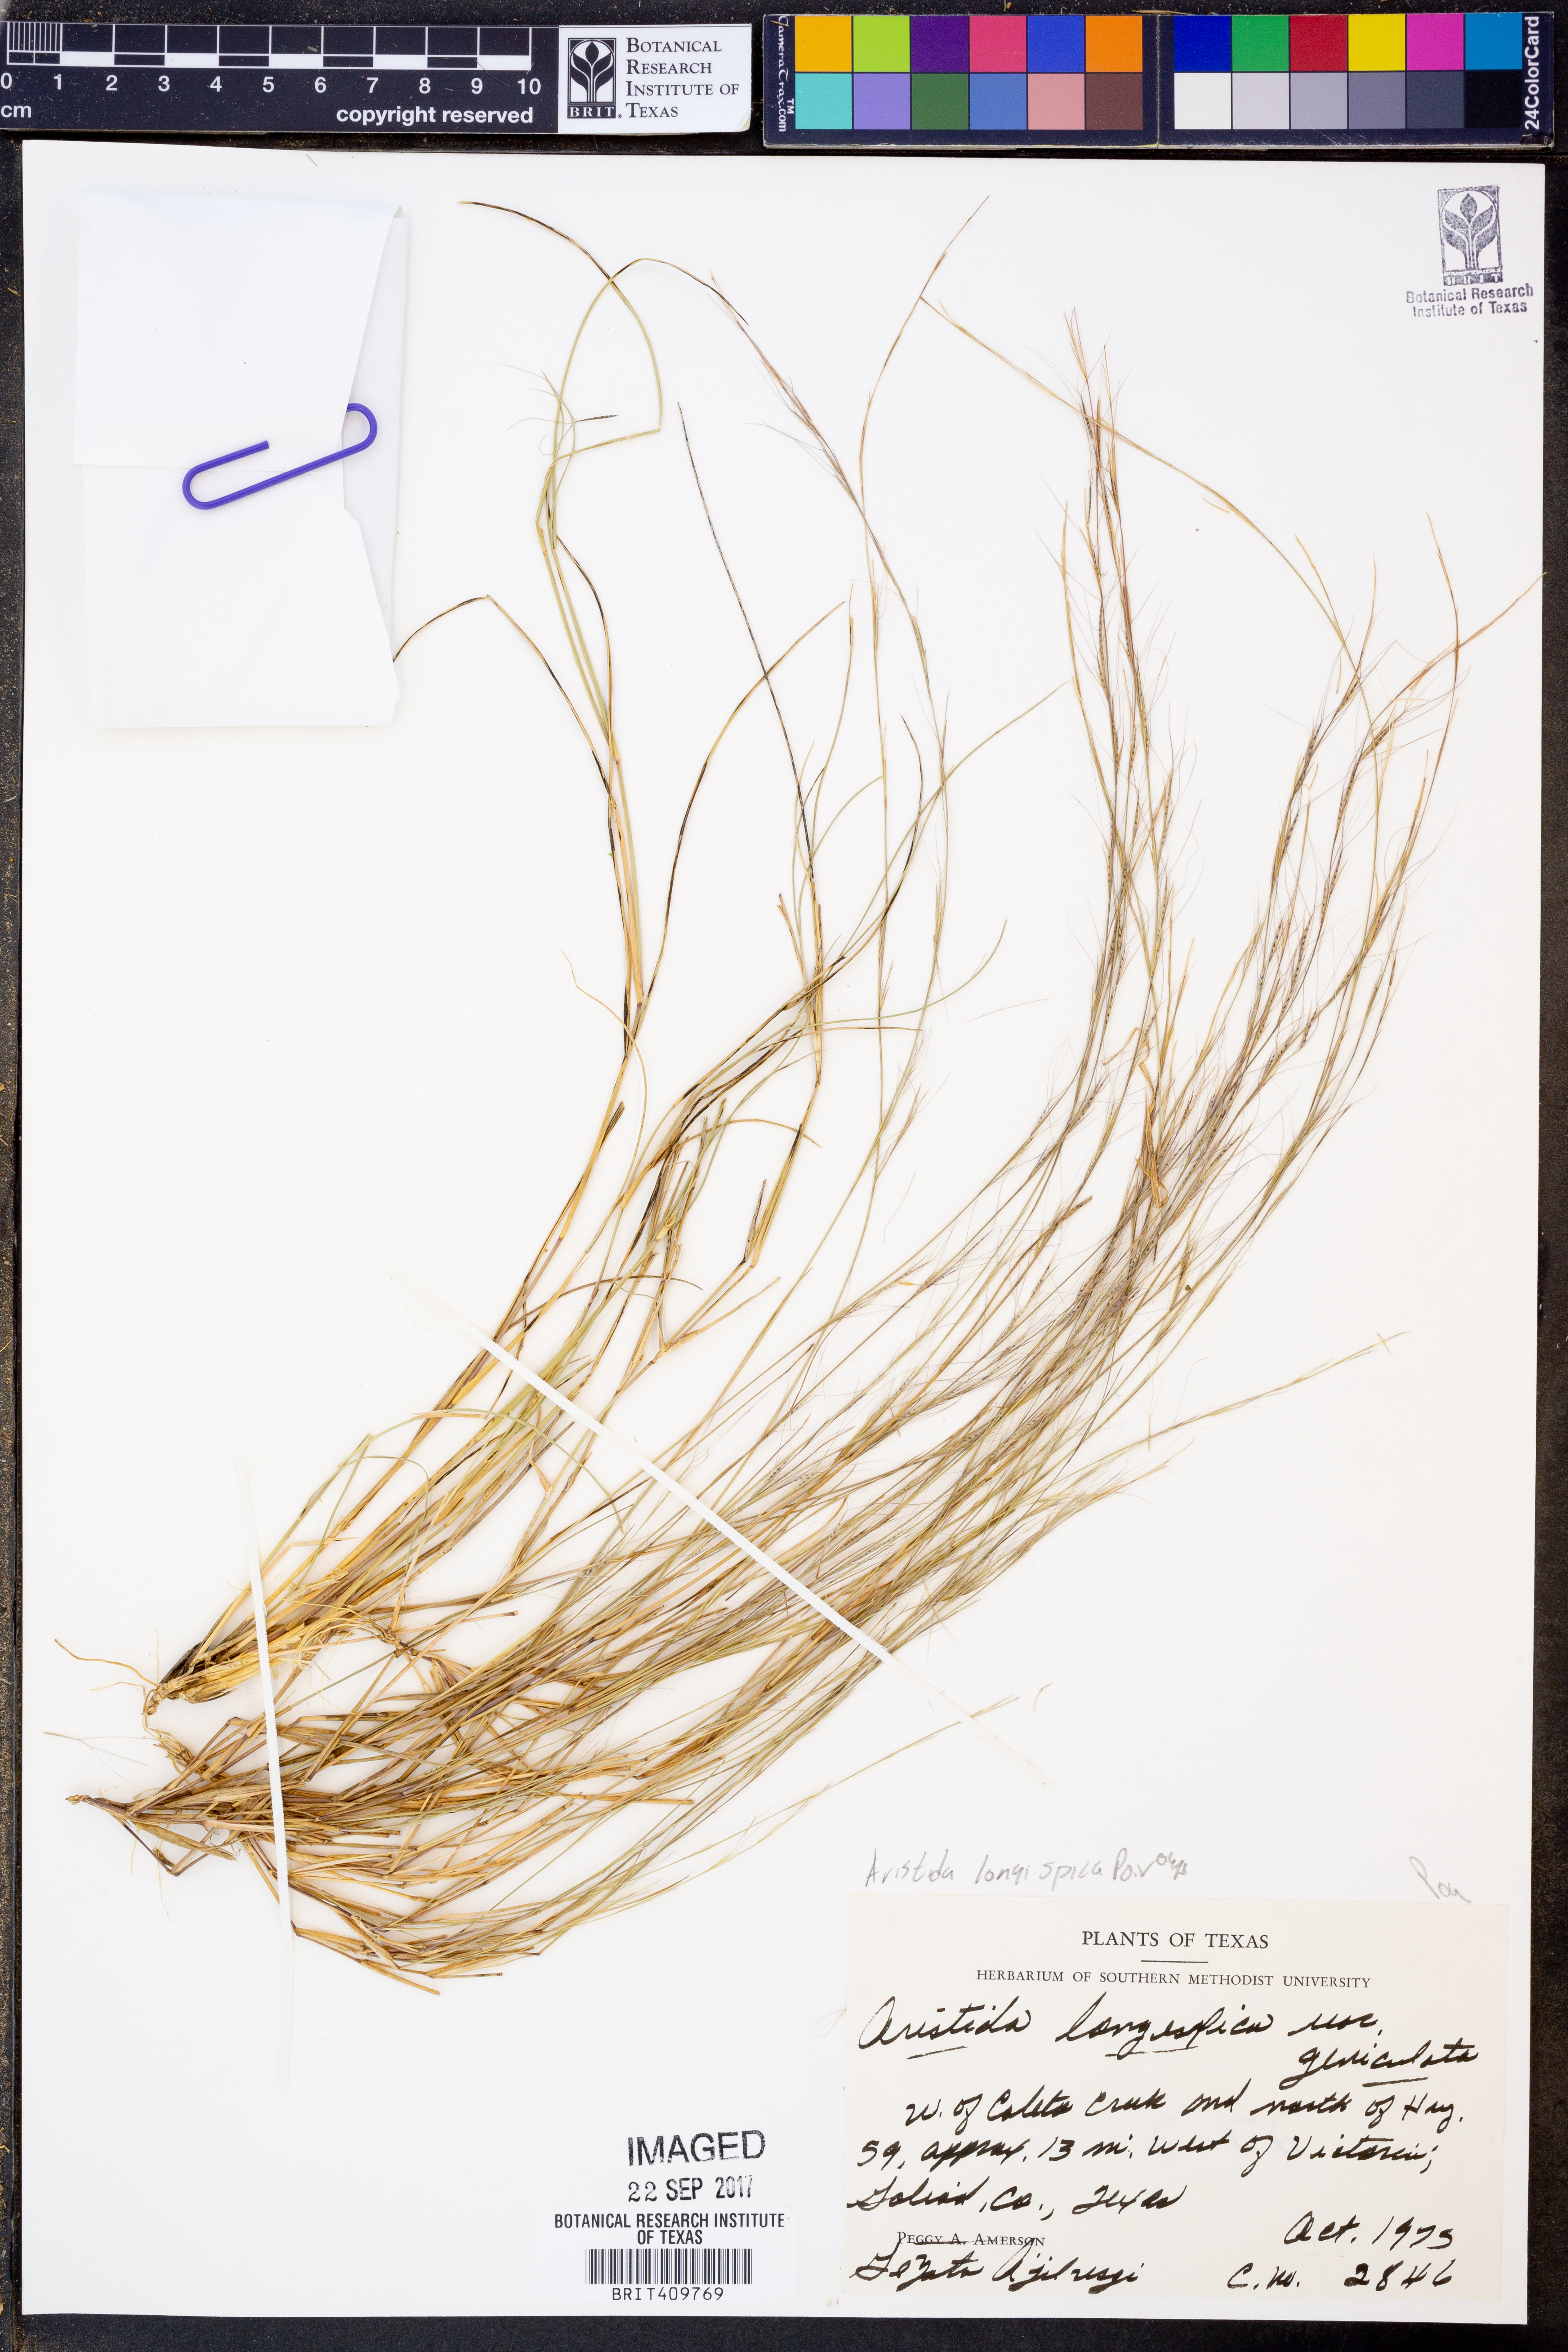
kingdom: Plantae
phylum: Tracheophyta
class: Liliopsida
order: Poales
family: Poaceae
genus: Aristida
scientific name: Aristida longespica
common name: Long-spiked triple-awned grass
